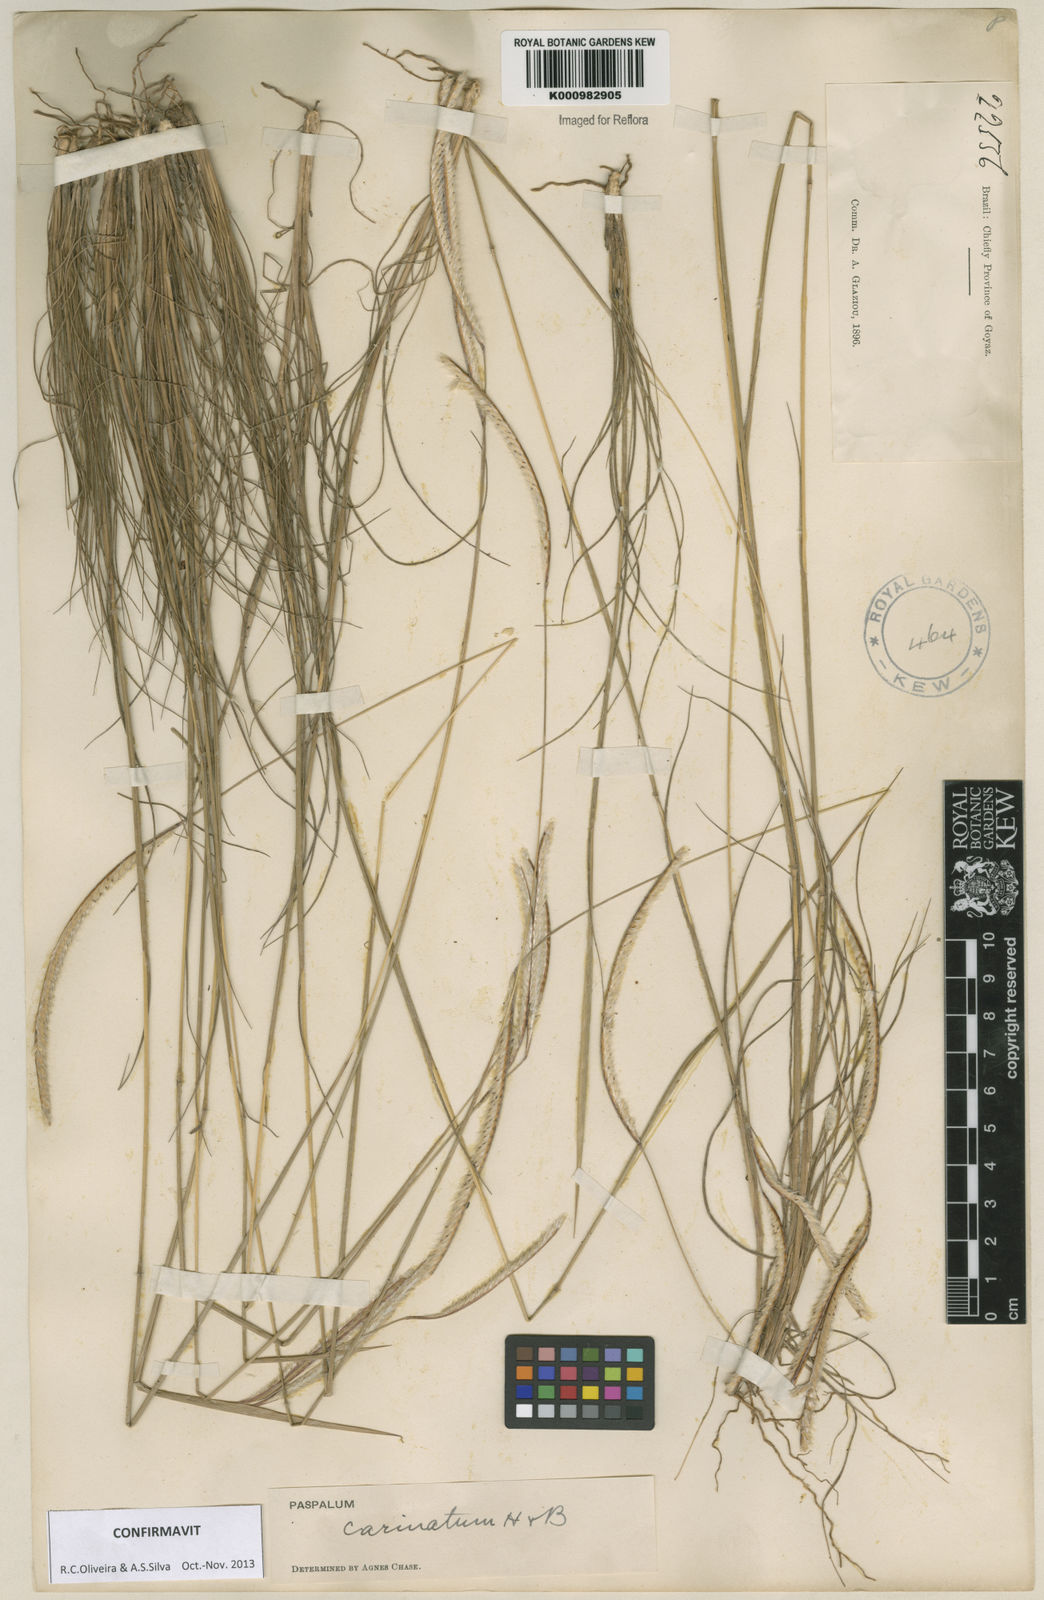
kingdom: Plantae
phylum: Tracheophyta
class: Liliopsida
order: Poales
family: Poaceae
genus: Paspalum
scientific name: Paspalum
